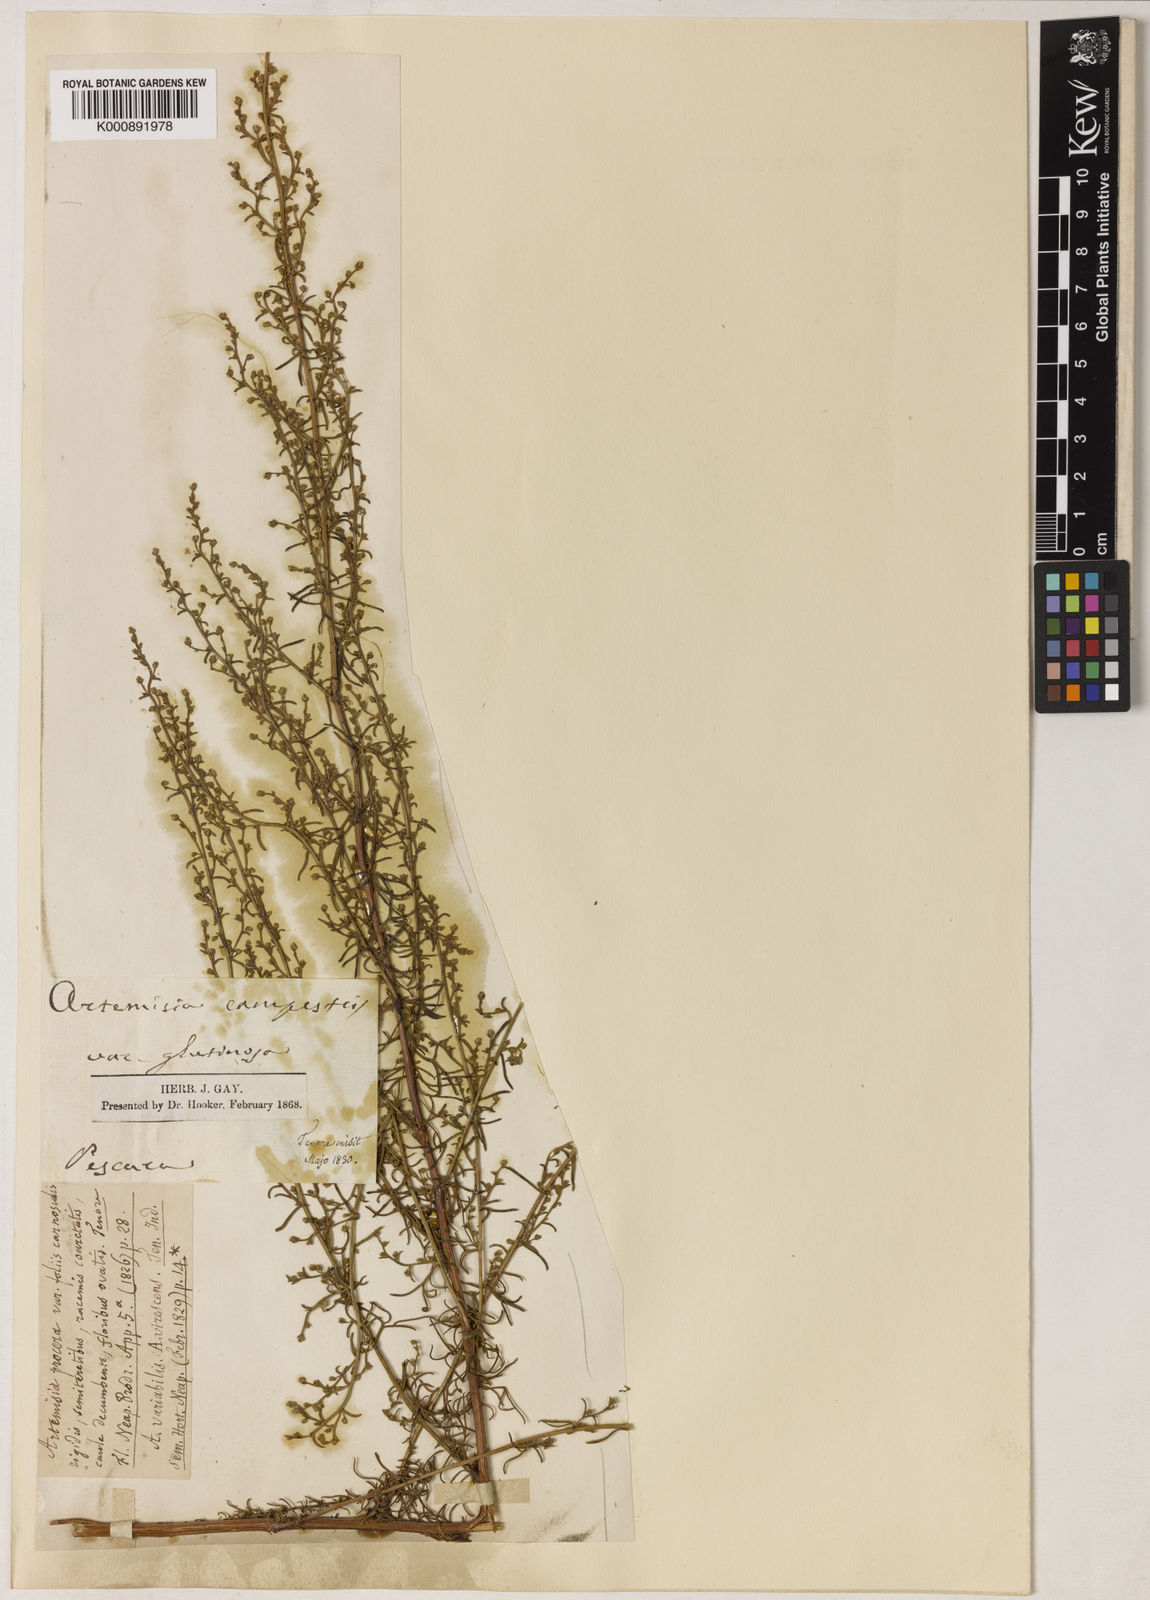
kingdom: Plantae
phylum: Tracheophyta
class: Magnoliopsida
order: Asterales
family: Asteraceae
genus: Artemisia
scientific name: Artemisia campestris
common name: Field wormwood
